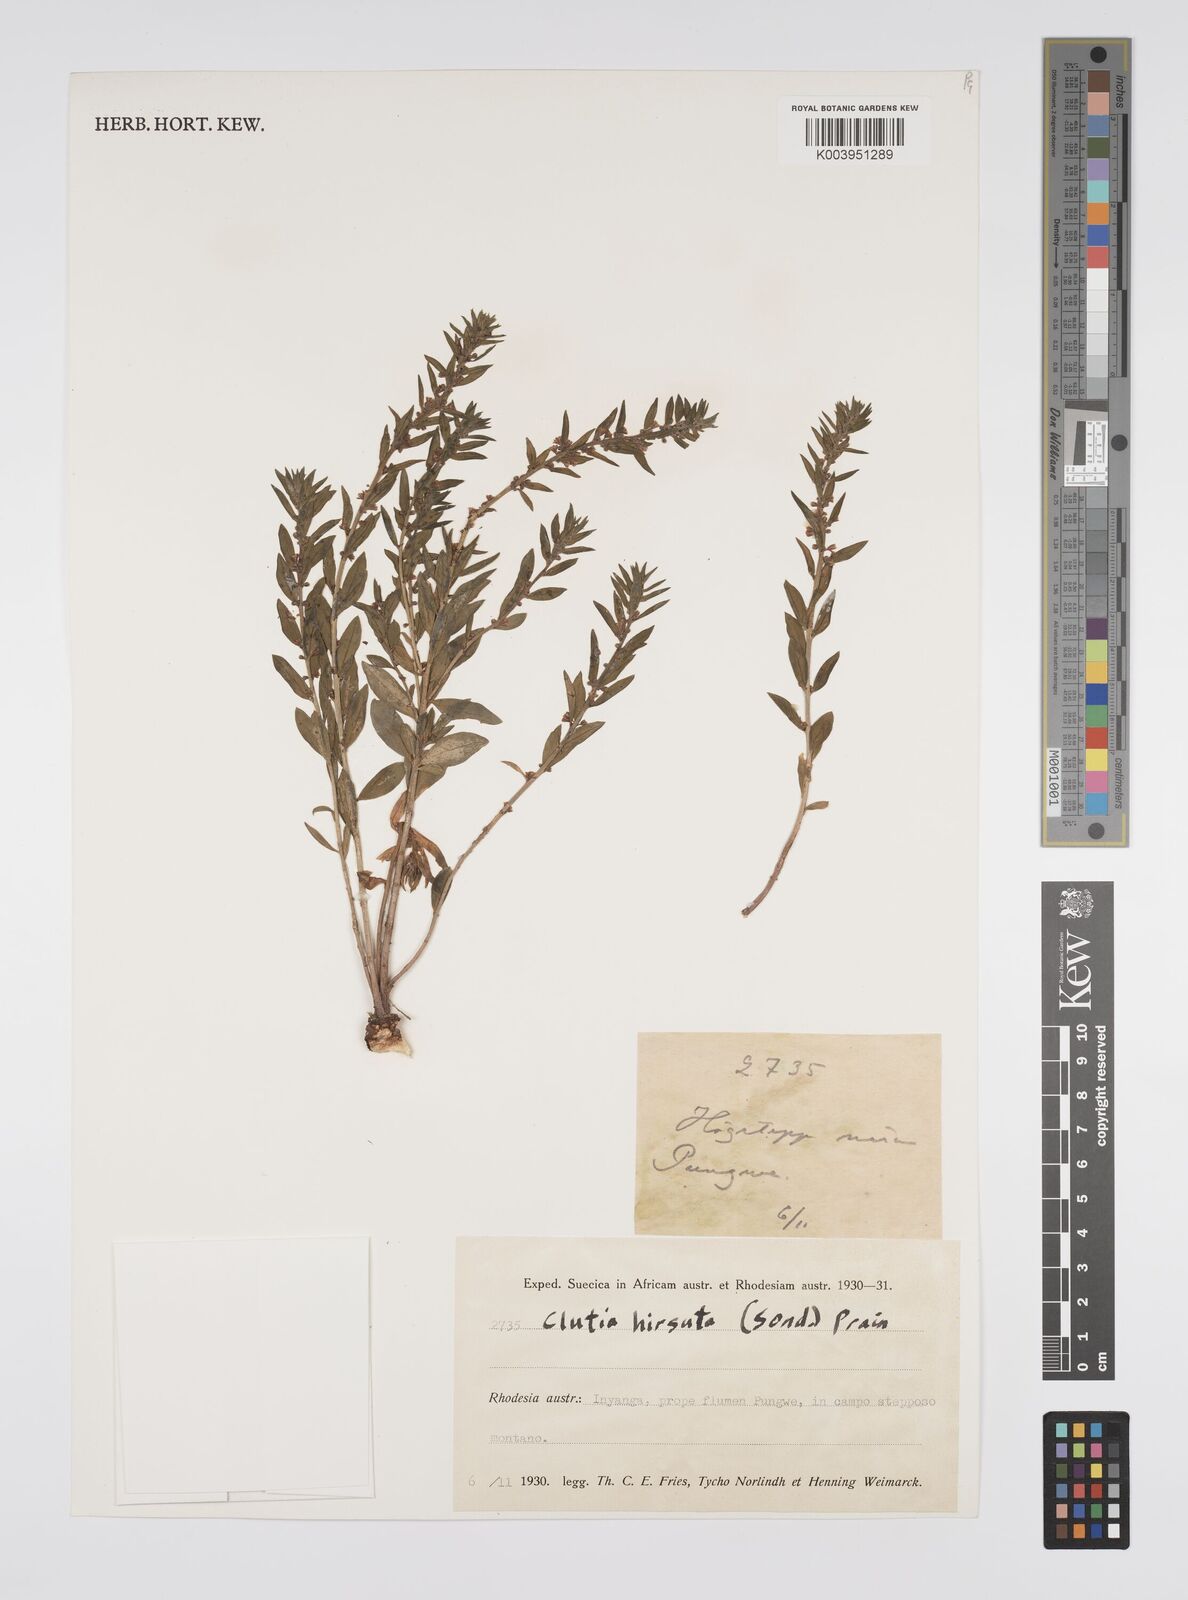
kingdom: Plantae
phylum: Tracheophyta
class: Magnoliopsida
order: Malpighiales
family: Peraceae
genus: Clutia
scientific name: Clutia hirsuta
